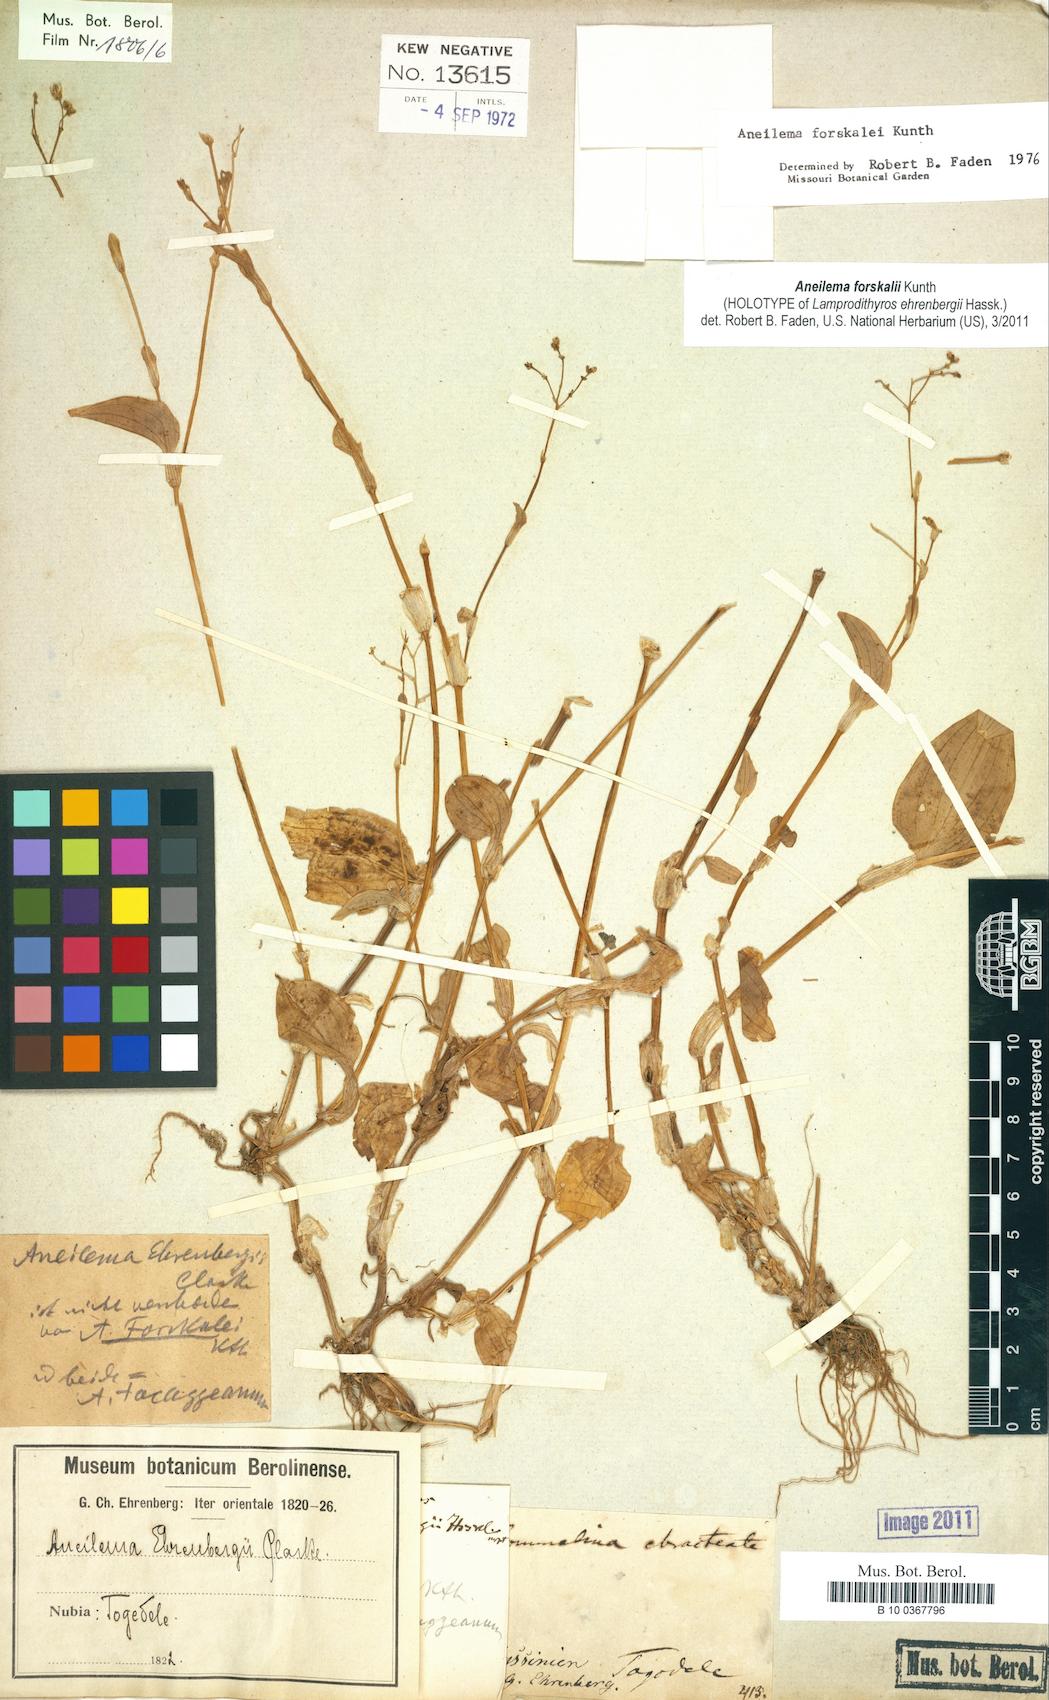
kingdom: Plantae
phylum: Tracheophyta
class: Liliopsida
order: Commelinales
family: Commelinaceae
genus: Aneilema
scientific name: Aneilema forskalii
